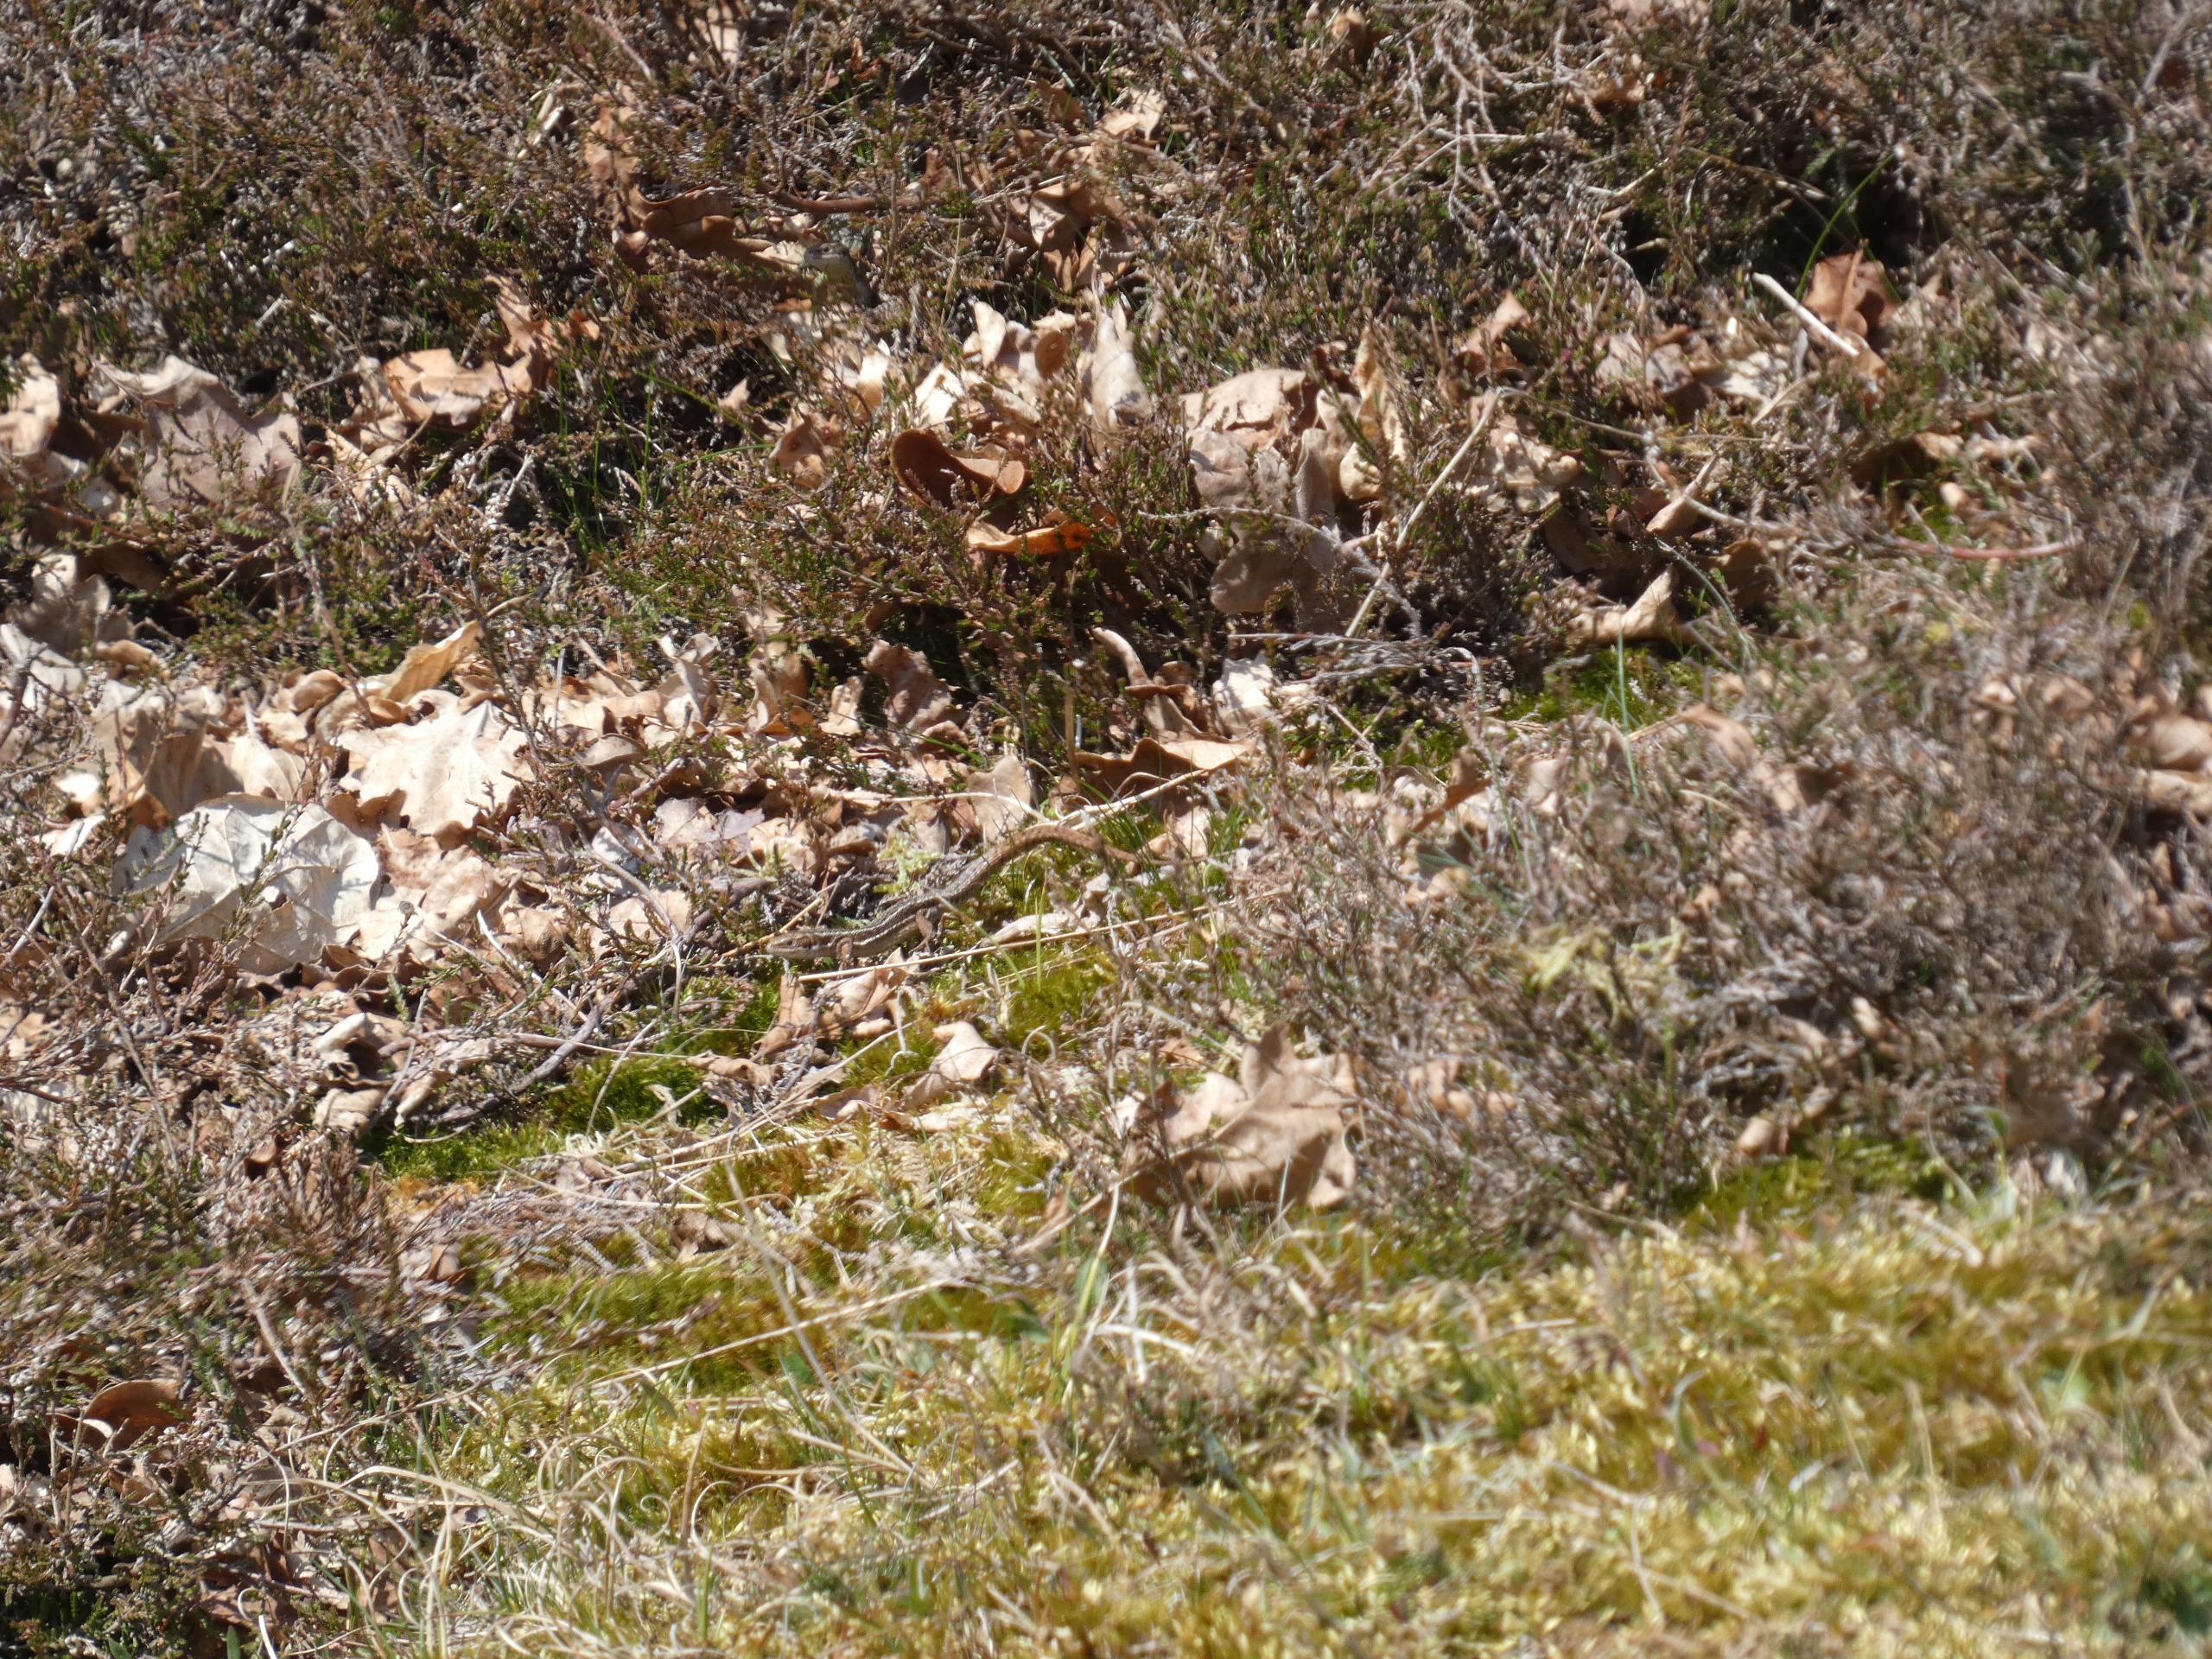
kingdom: Animalia
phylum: Chordata
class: Squamata
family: Lacertidae
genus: Zootoca
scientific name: Zootoca vivipara
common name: Skovfirben
